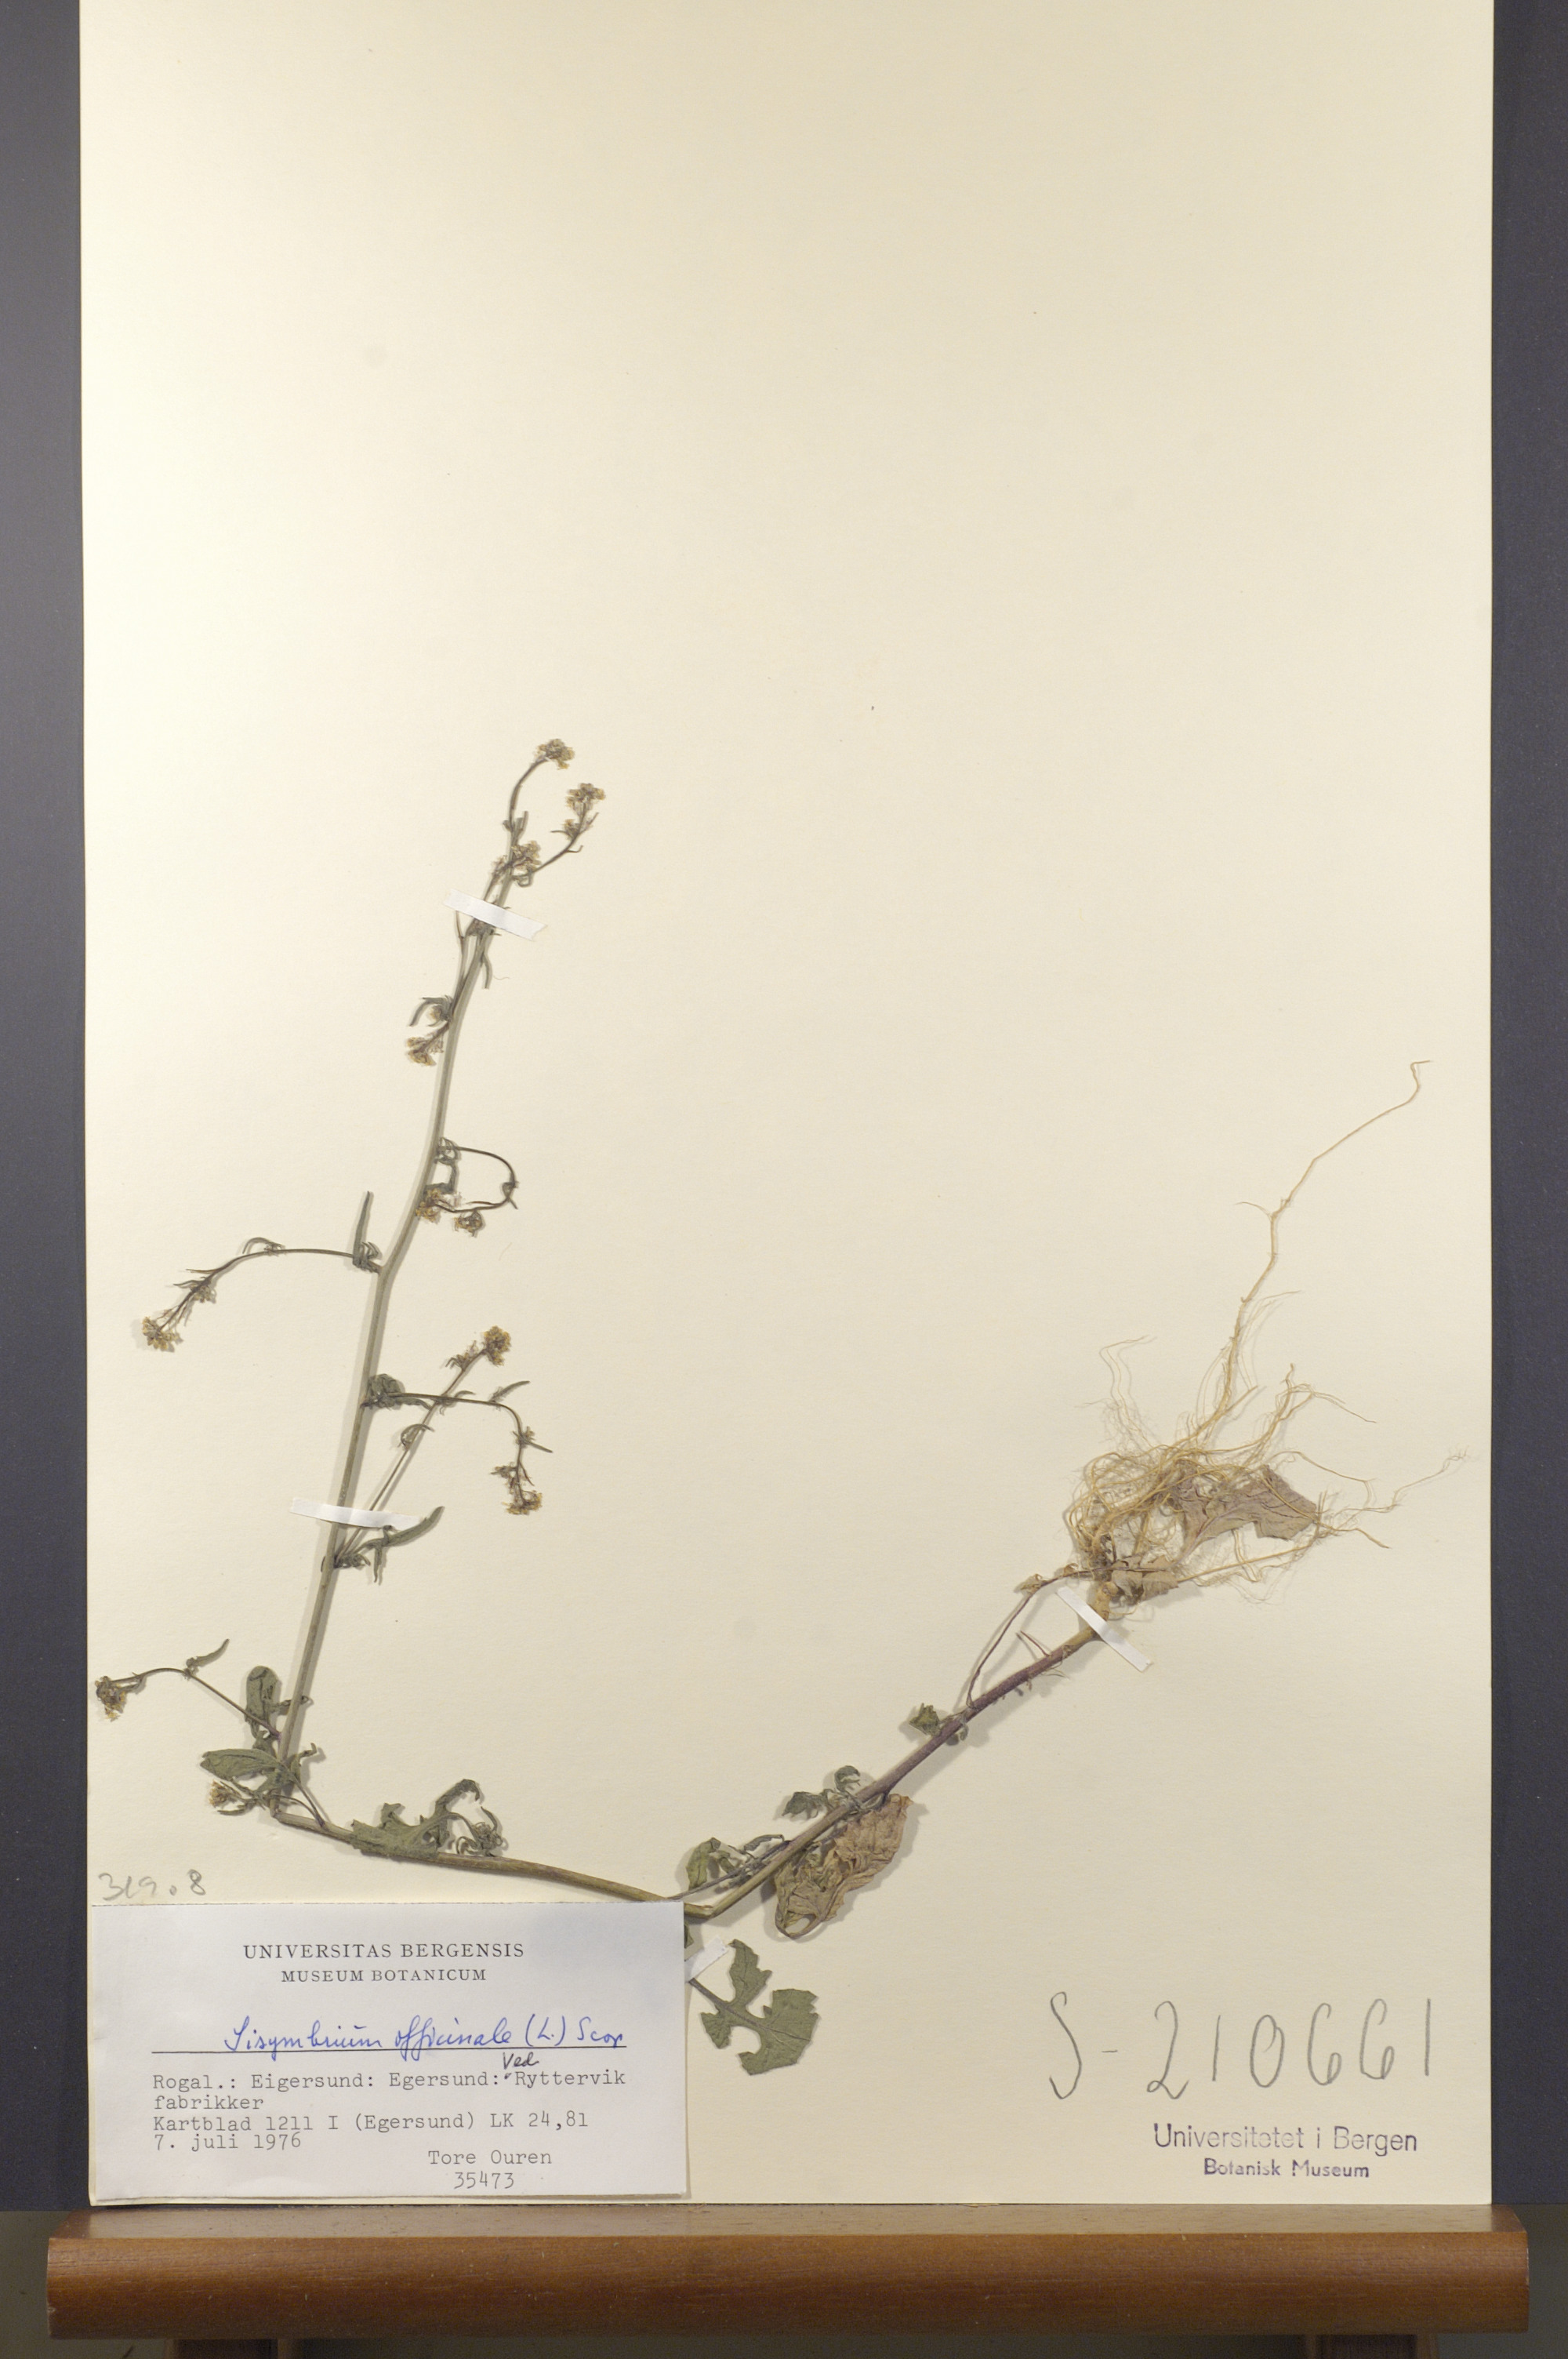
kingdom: Plantae
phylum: Tracheophyta
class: Magnoliopsida
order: Brassicales
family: Brassicaceae
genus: Sisymbrium
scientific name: Sisymbrium officinale
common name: Hedge mustard
